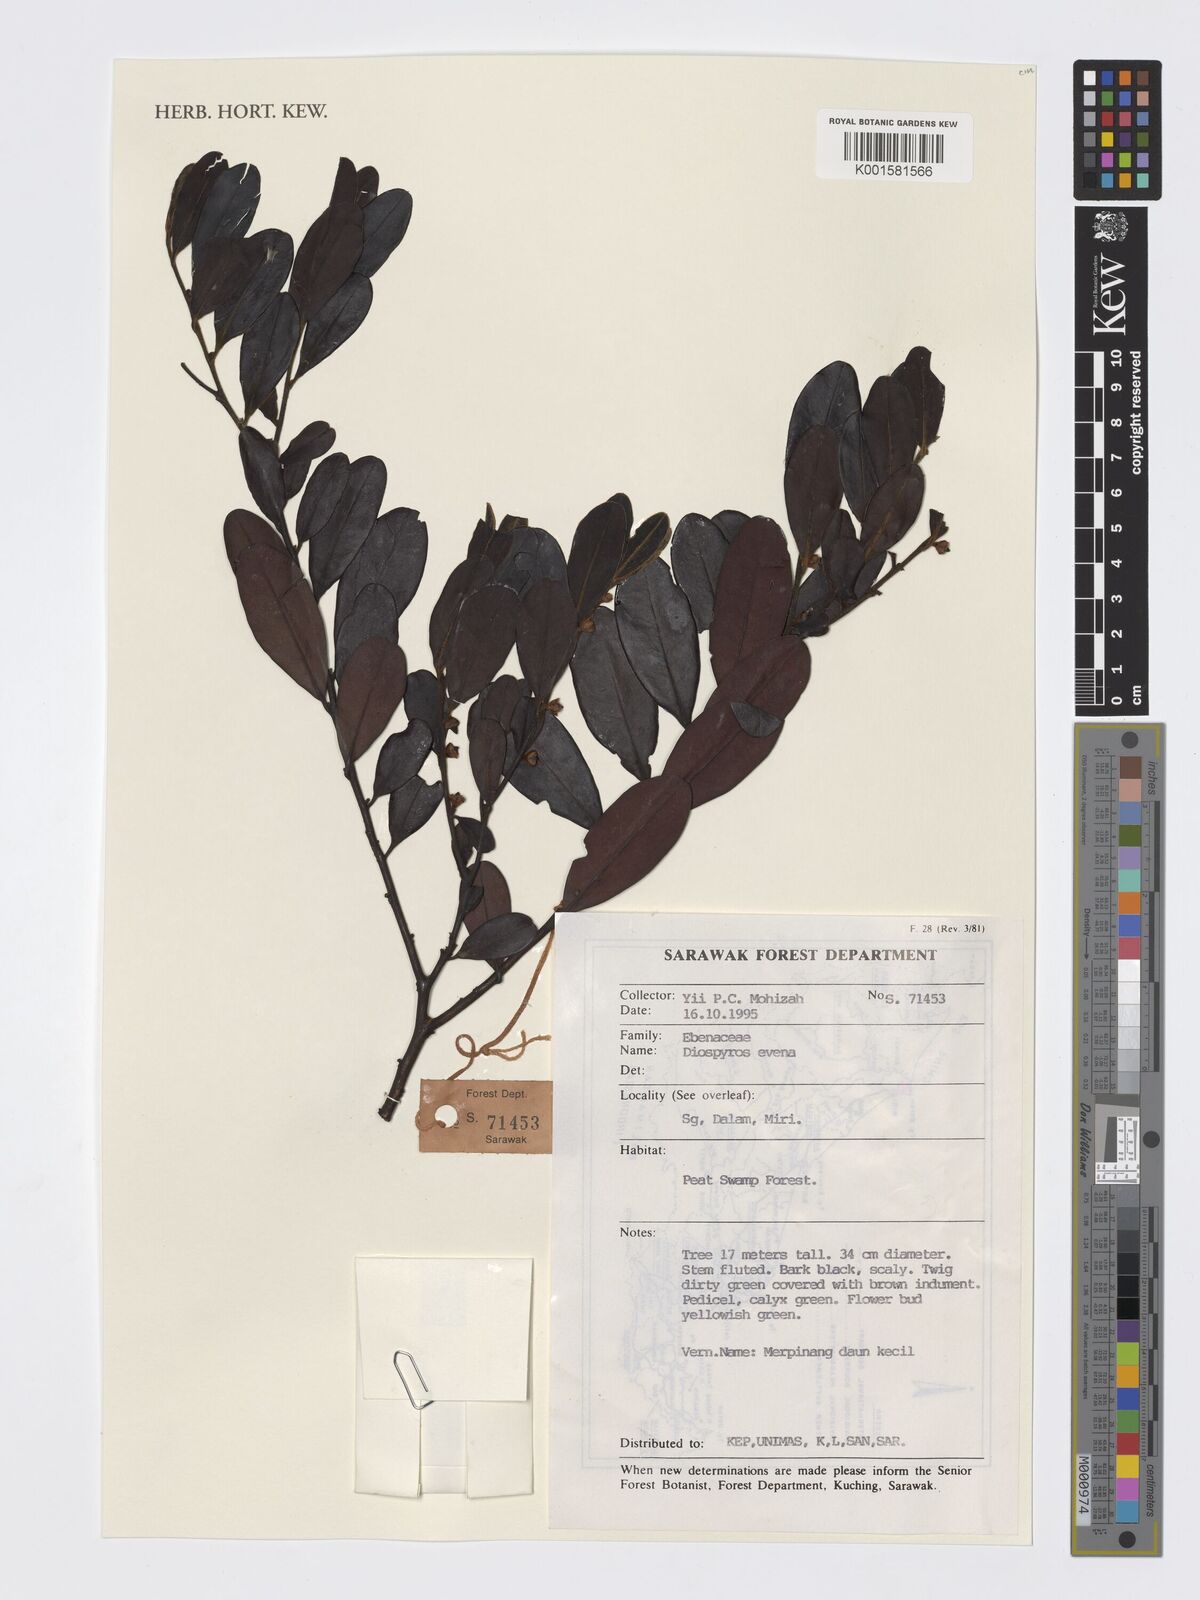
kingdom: Plantae
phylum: Tracheophyta
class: Magnoliopsida
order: Ericales
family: Ebenaceae
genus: Diospyros
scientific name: Diospyros evena
